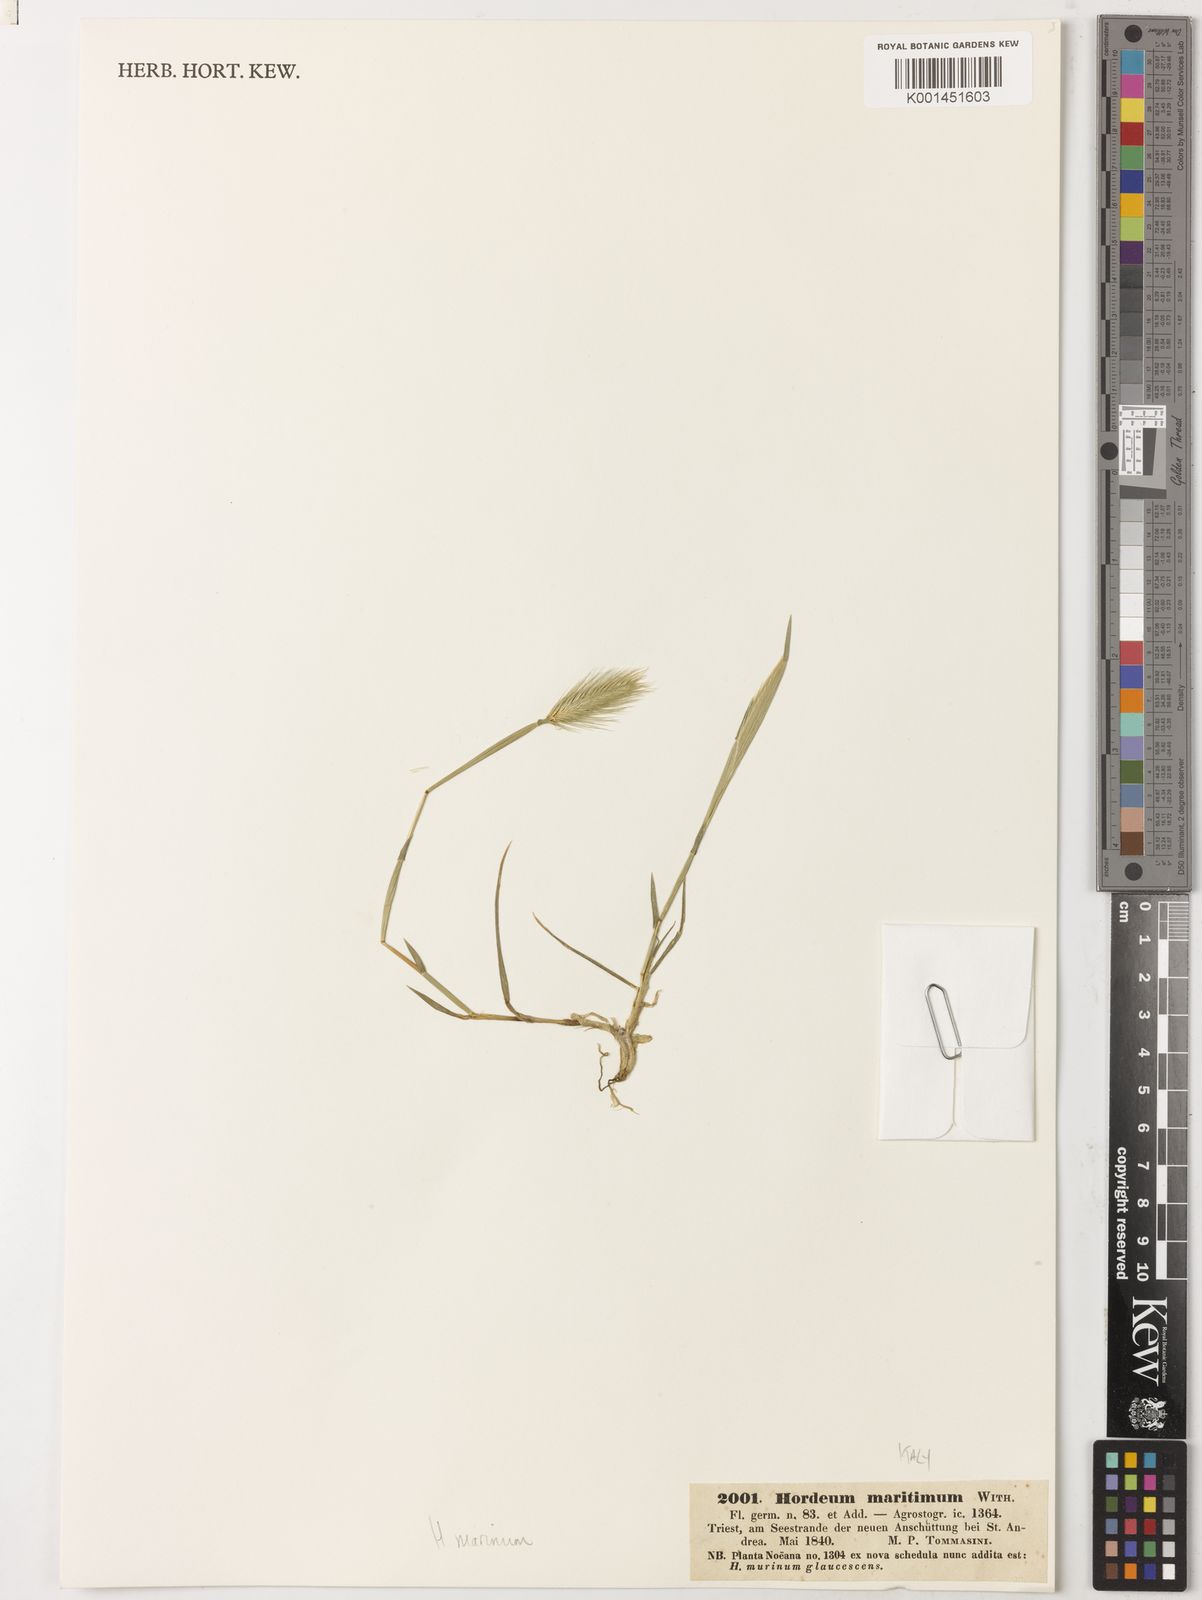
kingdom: Plantae
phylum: Tracheophyta
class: Liliopsida
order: Poales
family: Poaceae
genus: Hordeum
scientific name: Hordeum marinum
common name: Sea barley
